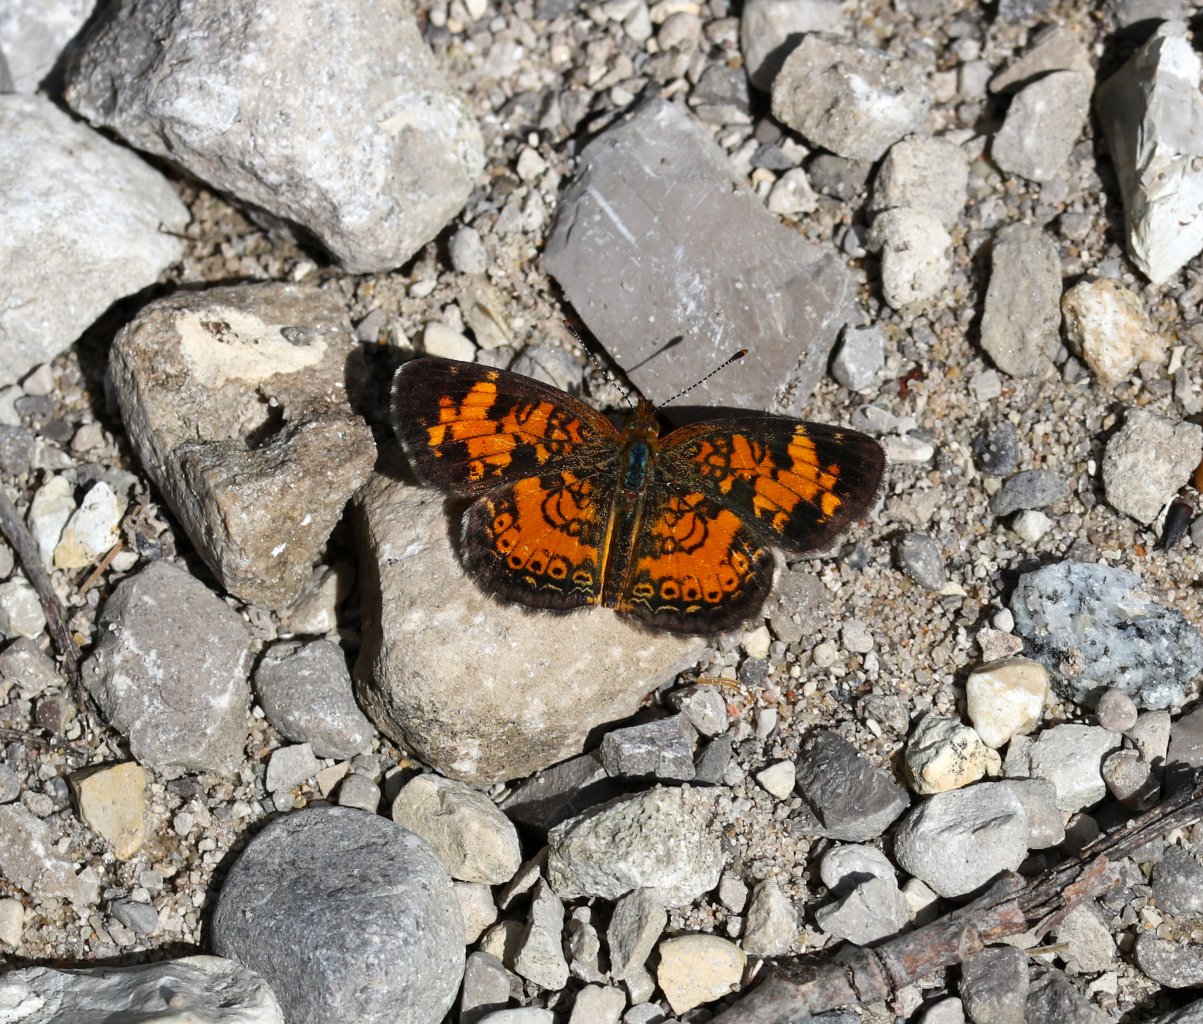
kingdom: Animalia
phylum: Arthropoda
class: Insecta
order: Lepidoptera
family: Nymphalidae
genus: Phyciodes
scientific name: Phyciodes tharos
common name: Pearl Crescent
